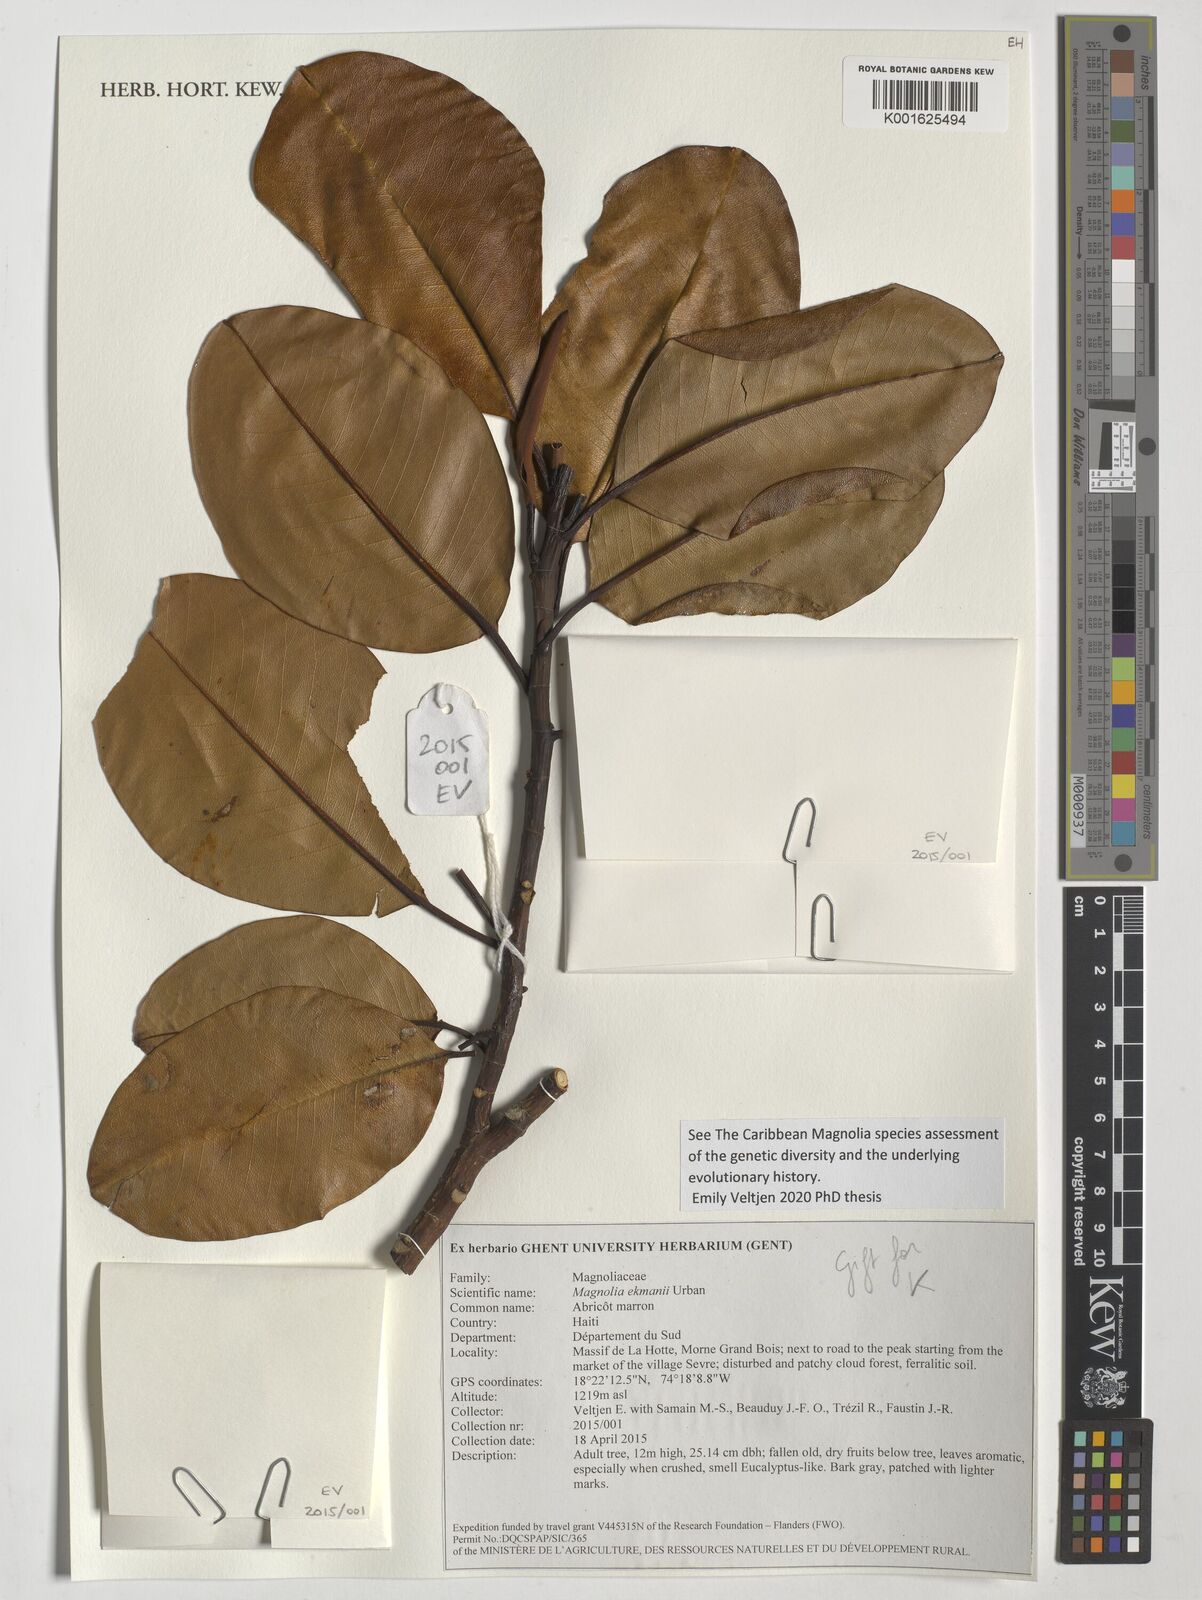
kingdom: Plantae
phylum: Tracheophyta
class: Magnoliopsida
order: Magnoliales
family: Magnoliaceae
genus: Magnolia
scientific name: Magnolia ekmanii
